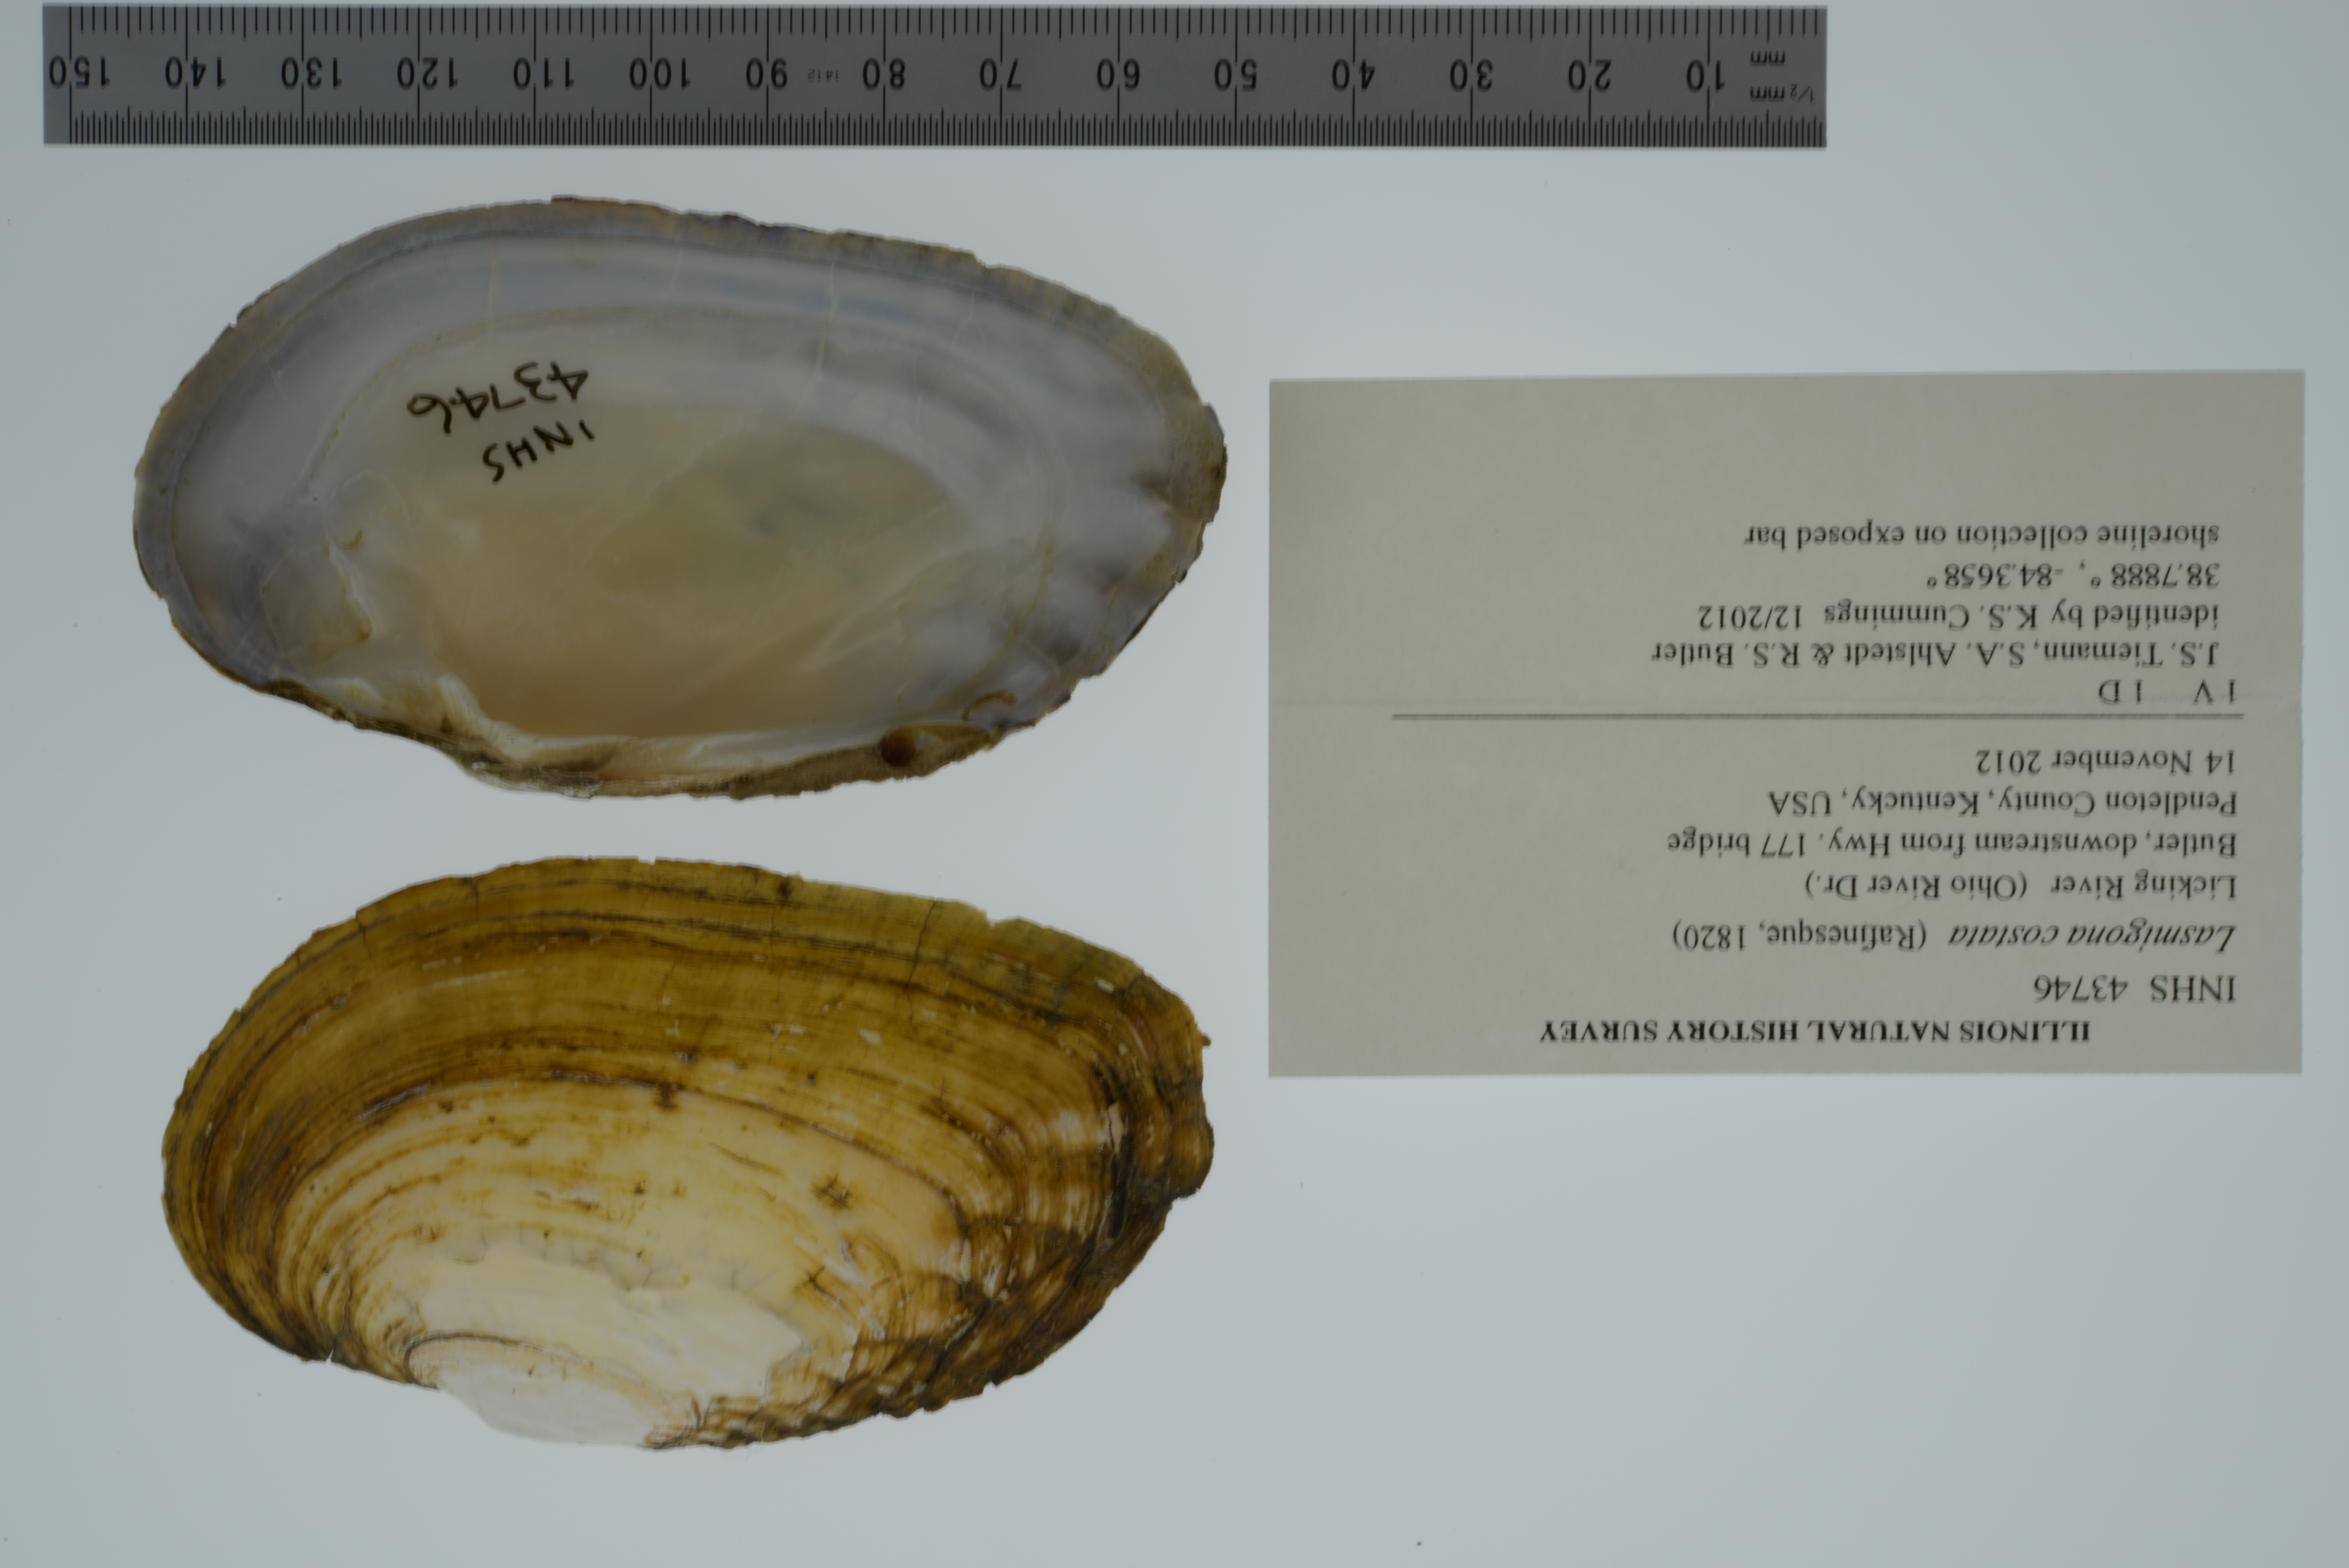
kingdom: Animalia
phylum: Mollusca
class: Bivalvia
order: Unionida
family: Unionidae
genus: Lasmigona
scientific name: Lasmigona costata
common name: Flutedshell
